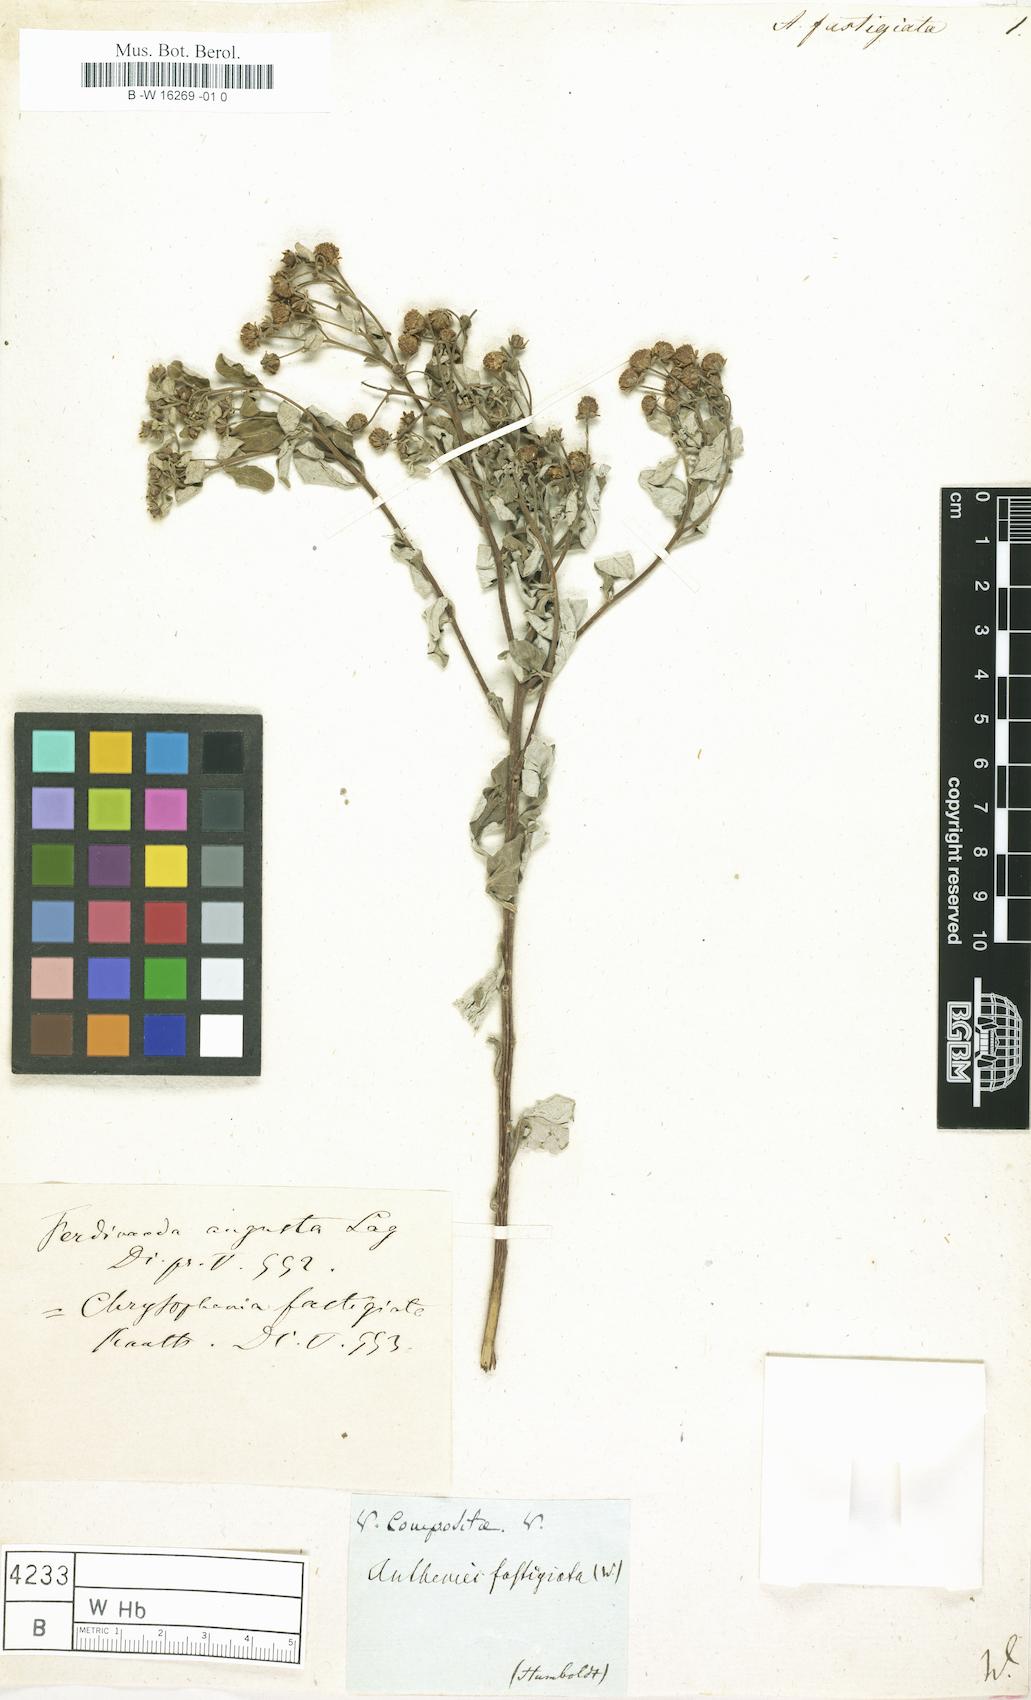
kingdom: Plantae
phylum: Tracheophyta
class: Magnoliopsida
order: Asterales
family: Asteraceae
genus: Anthemis
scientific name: Anthemis
